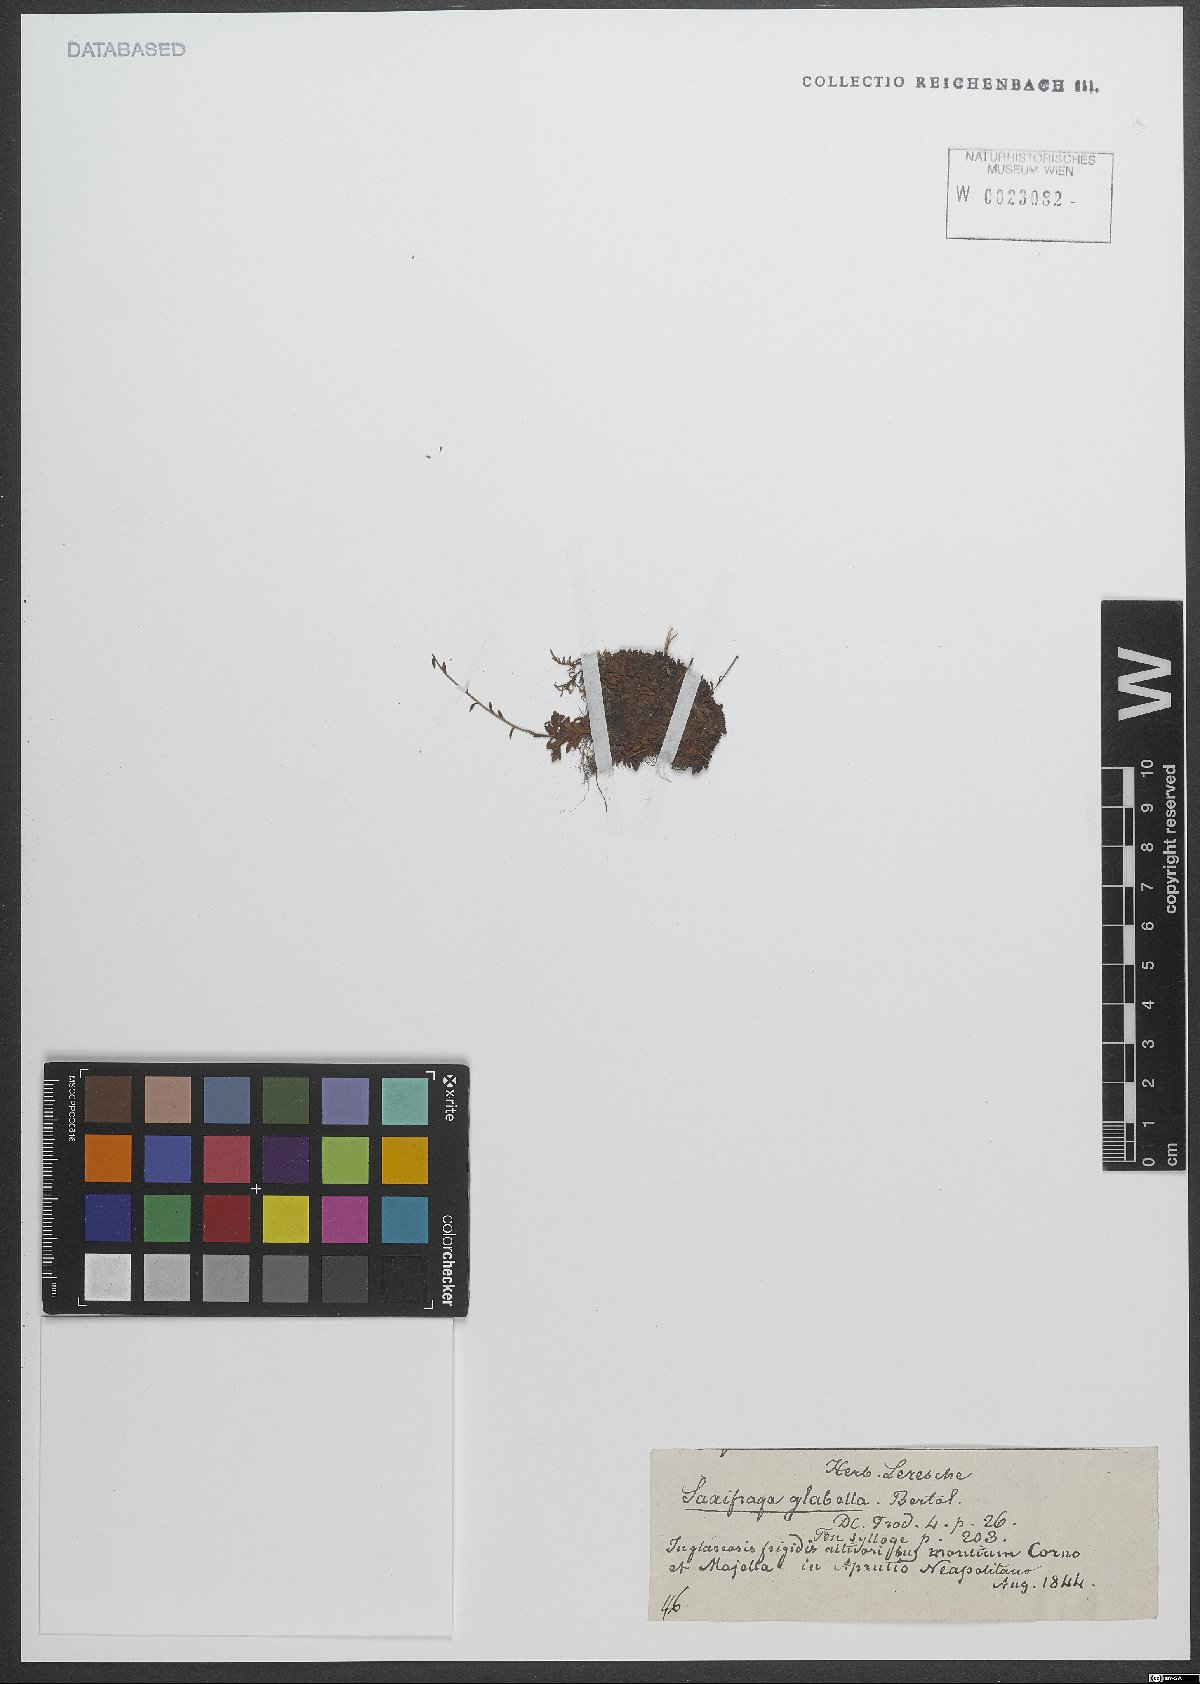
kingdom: Plantae
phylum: Tracheophyta
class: Magnoliopsida
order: Saxifragales
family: Saxifragaceae
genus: Saxifraga
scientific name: Saxifraga glabella
